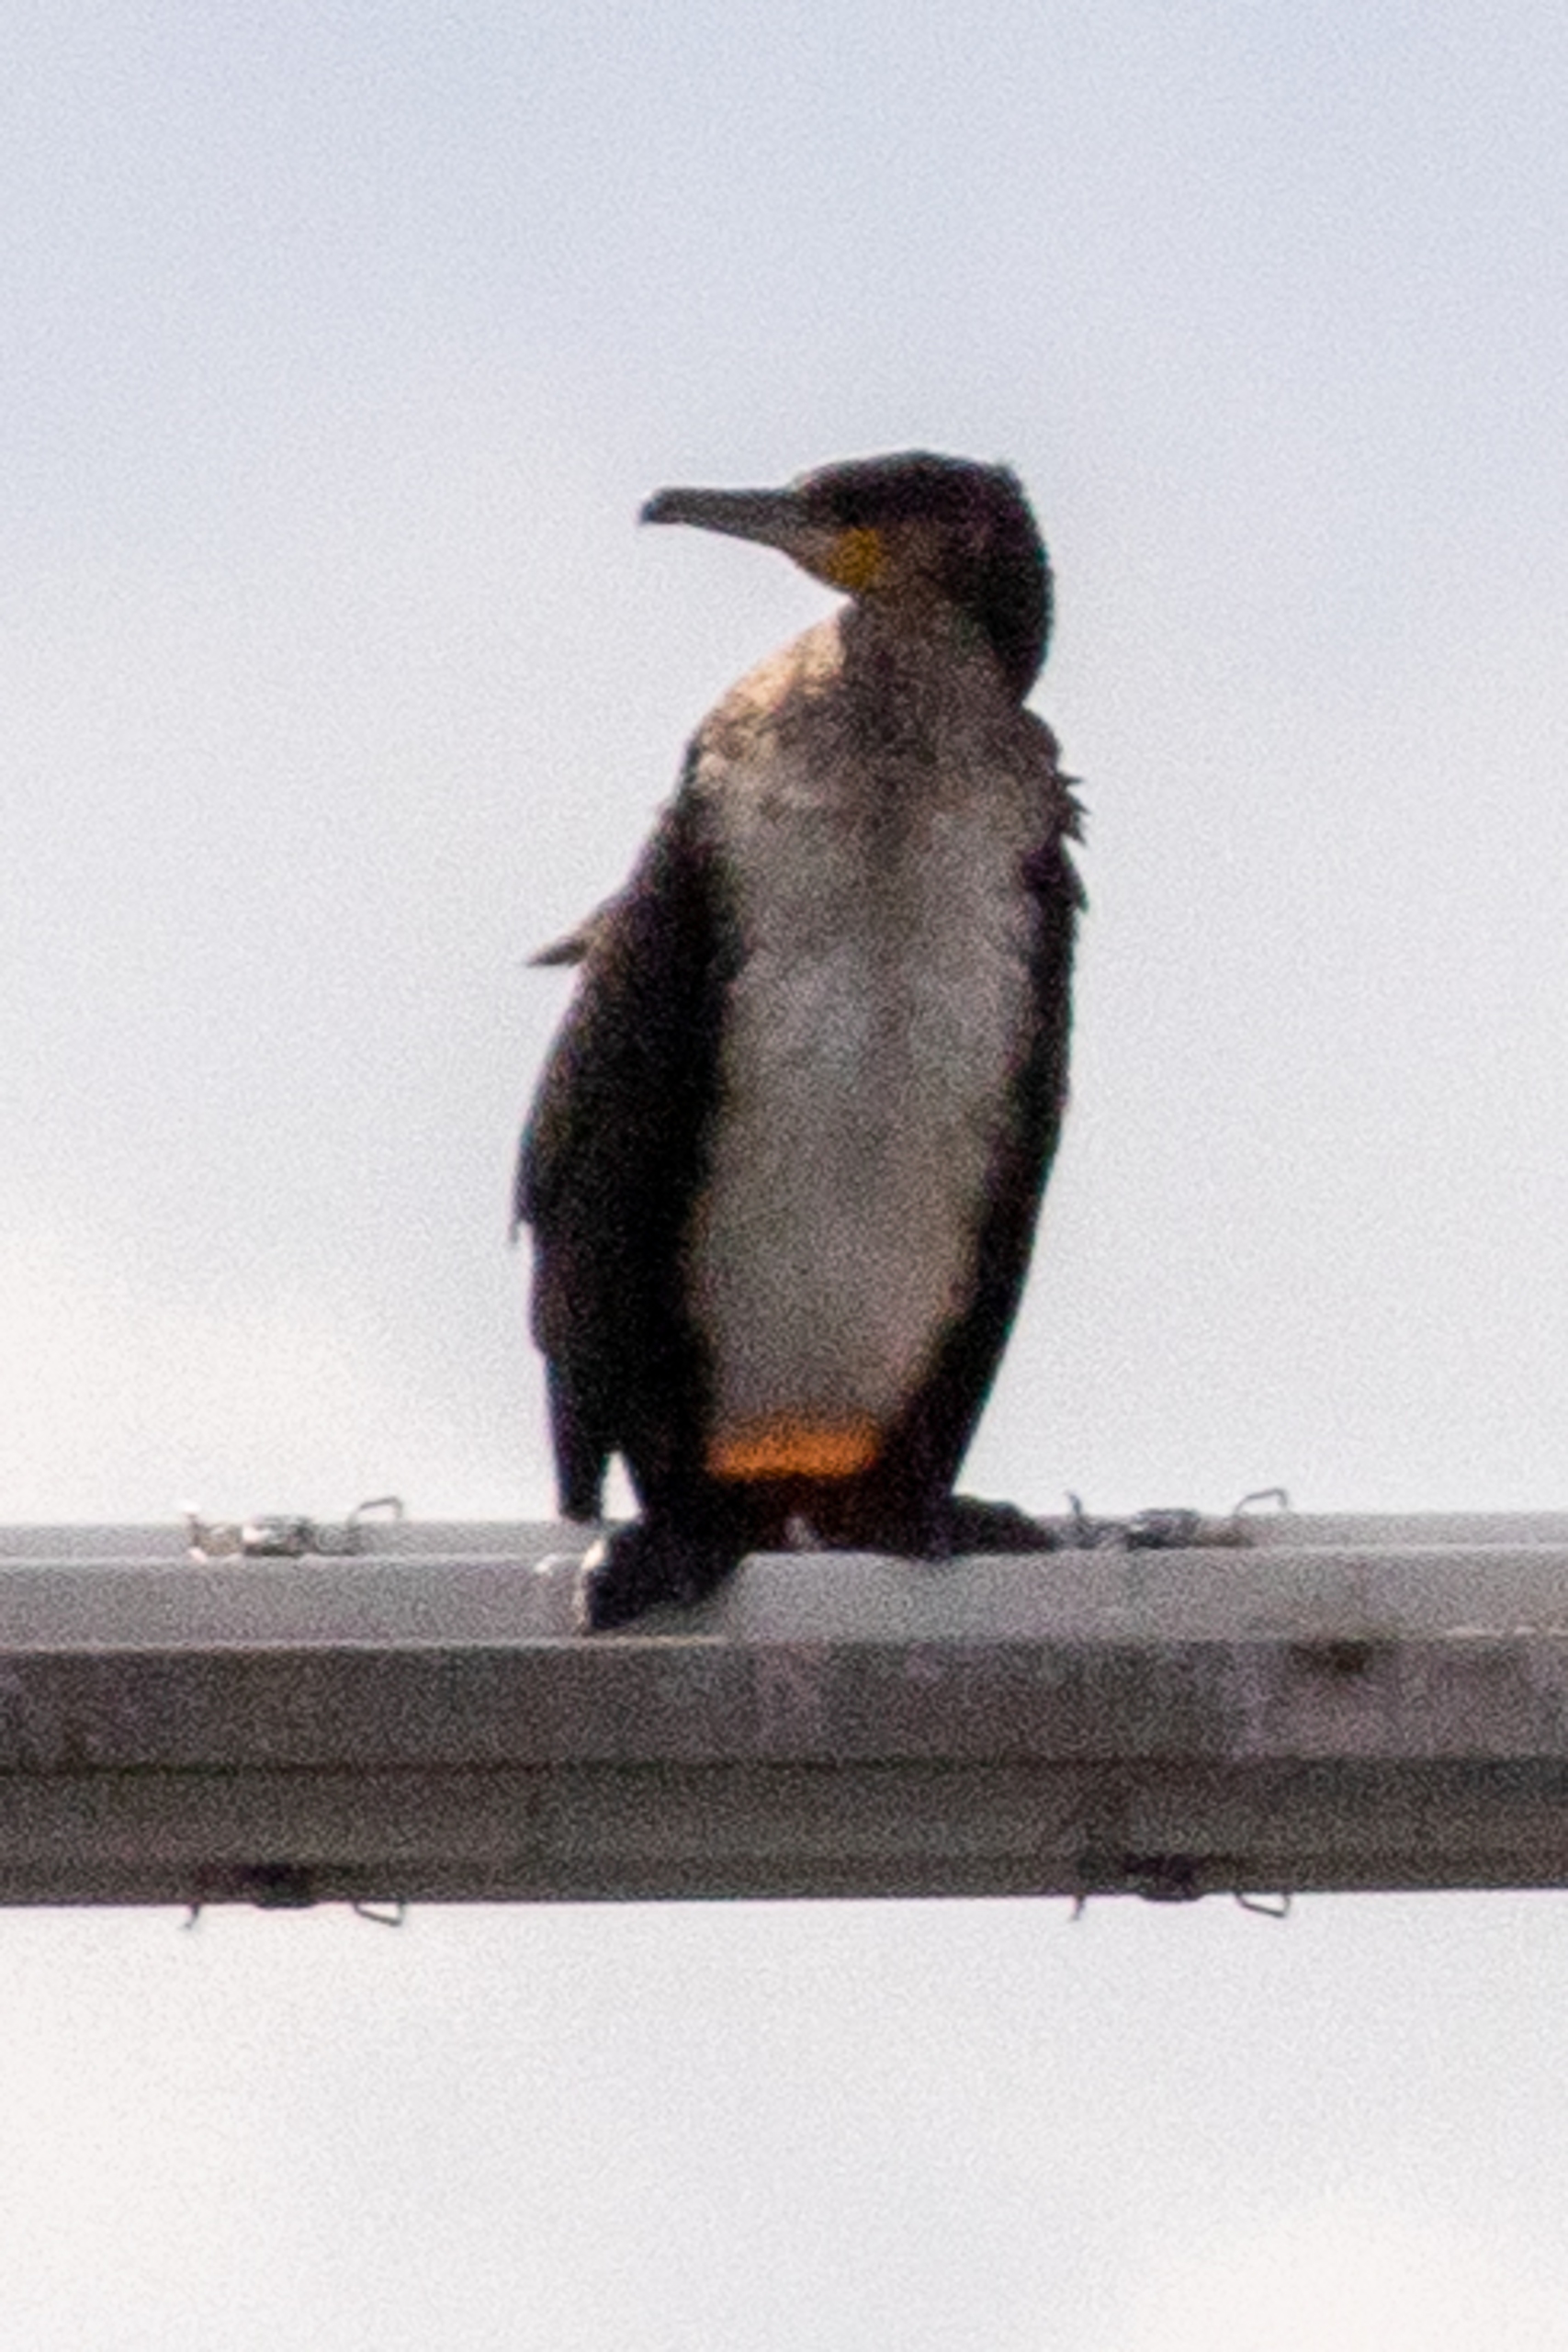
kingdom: Animalia
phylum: Chordata
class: Aves
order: Suliformes
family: Phalacrocoracidae
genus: Phalacrocorax
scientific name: Phalacrocorax carbo
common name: Skarv
